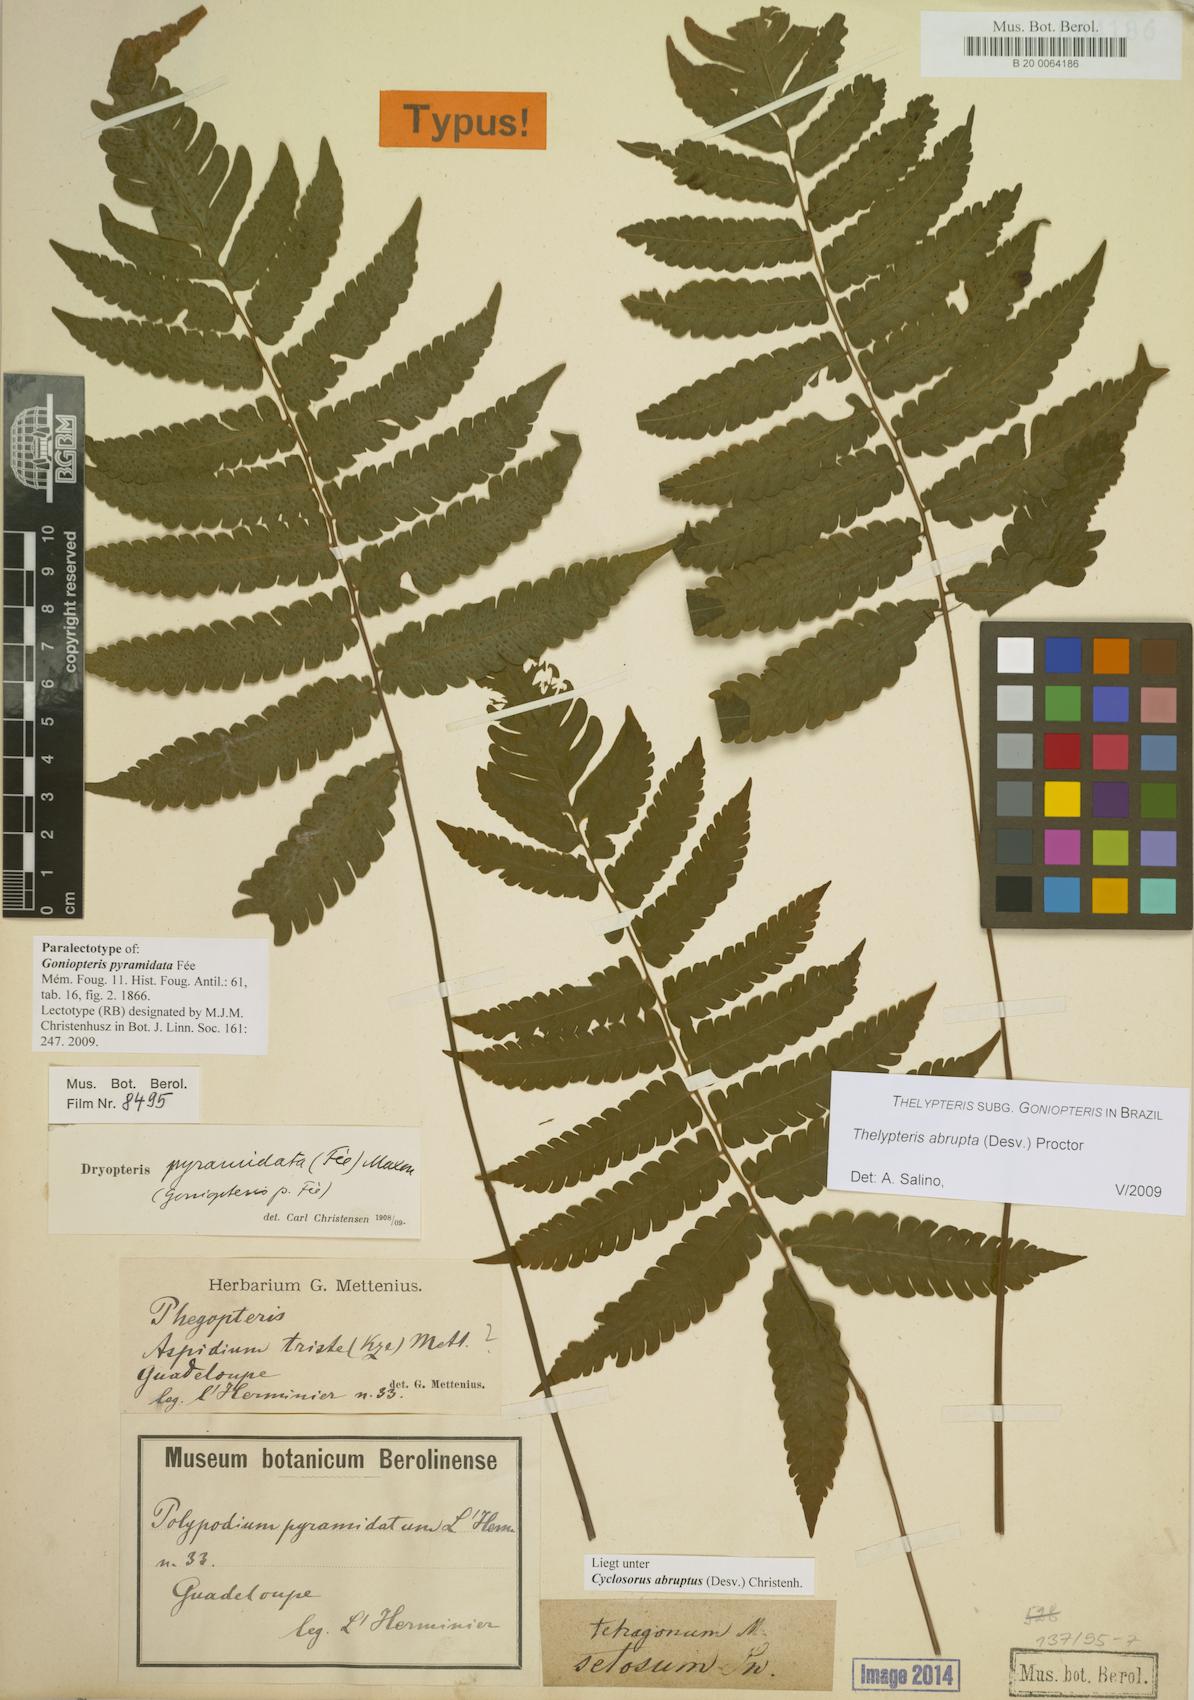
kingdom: Plantae
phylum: Tracheophyta
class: Polypodiopsida
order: Polypodiales
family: Thelypteridaceae
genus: Goniopteris
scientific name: Goniopteris abrupta
